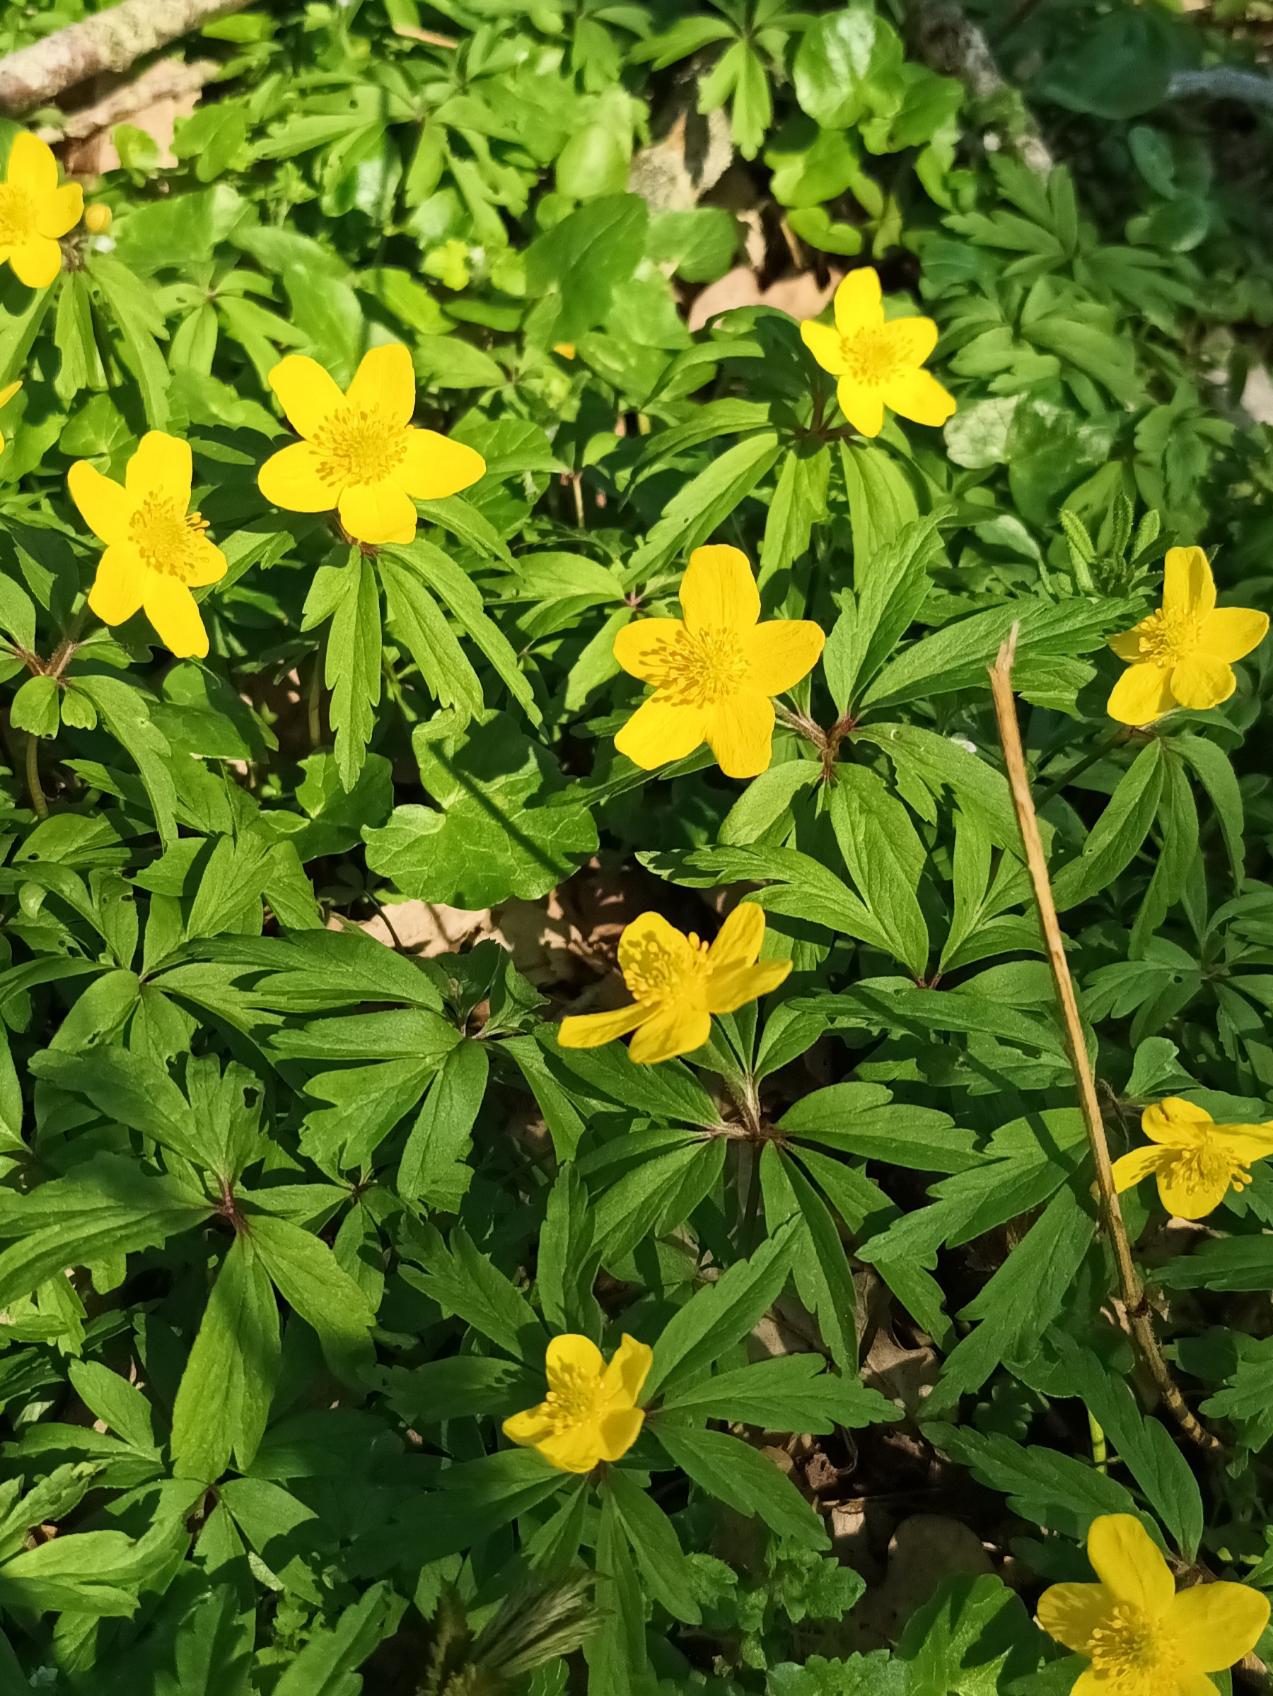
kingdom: Plantae
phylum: Tracheophyta
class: Magnoliopsida
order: Ranunculales
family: Ranunculaceae
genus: Anemone
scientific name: Anemone ranunculoides
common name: Gul anemone
